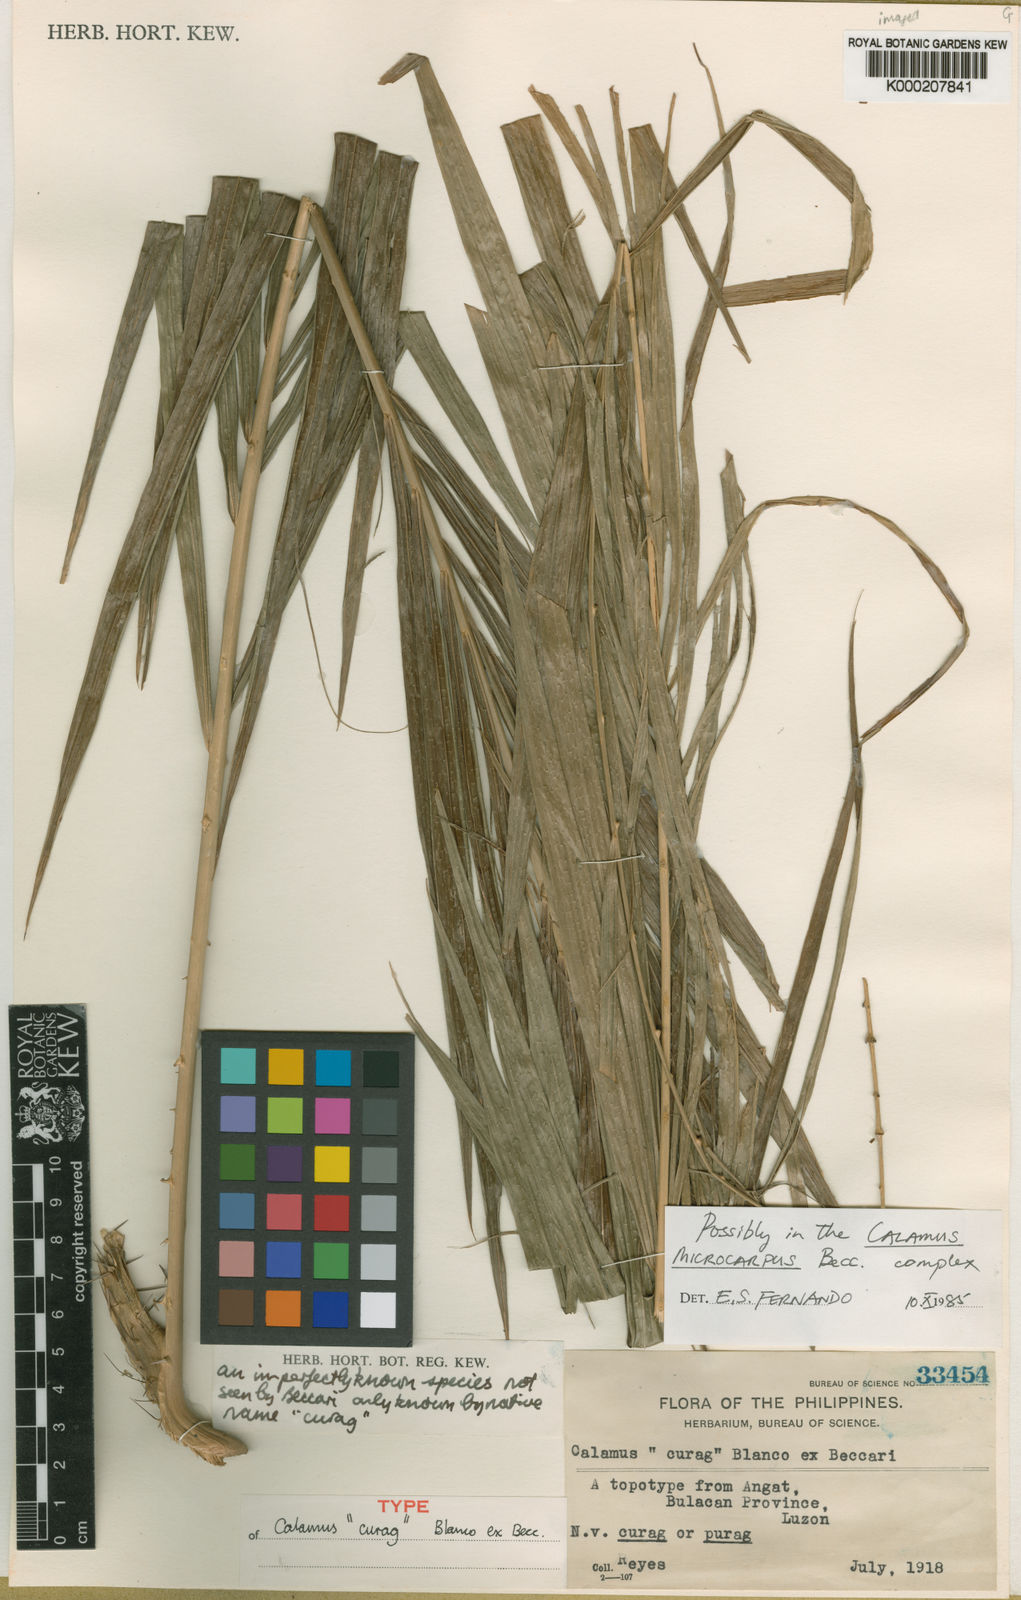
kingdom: Plantae
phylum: Tracheophyta
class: Liliopsida
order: Arecales
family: Arecaceae
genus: Calamus
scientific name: Calamus
